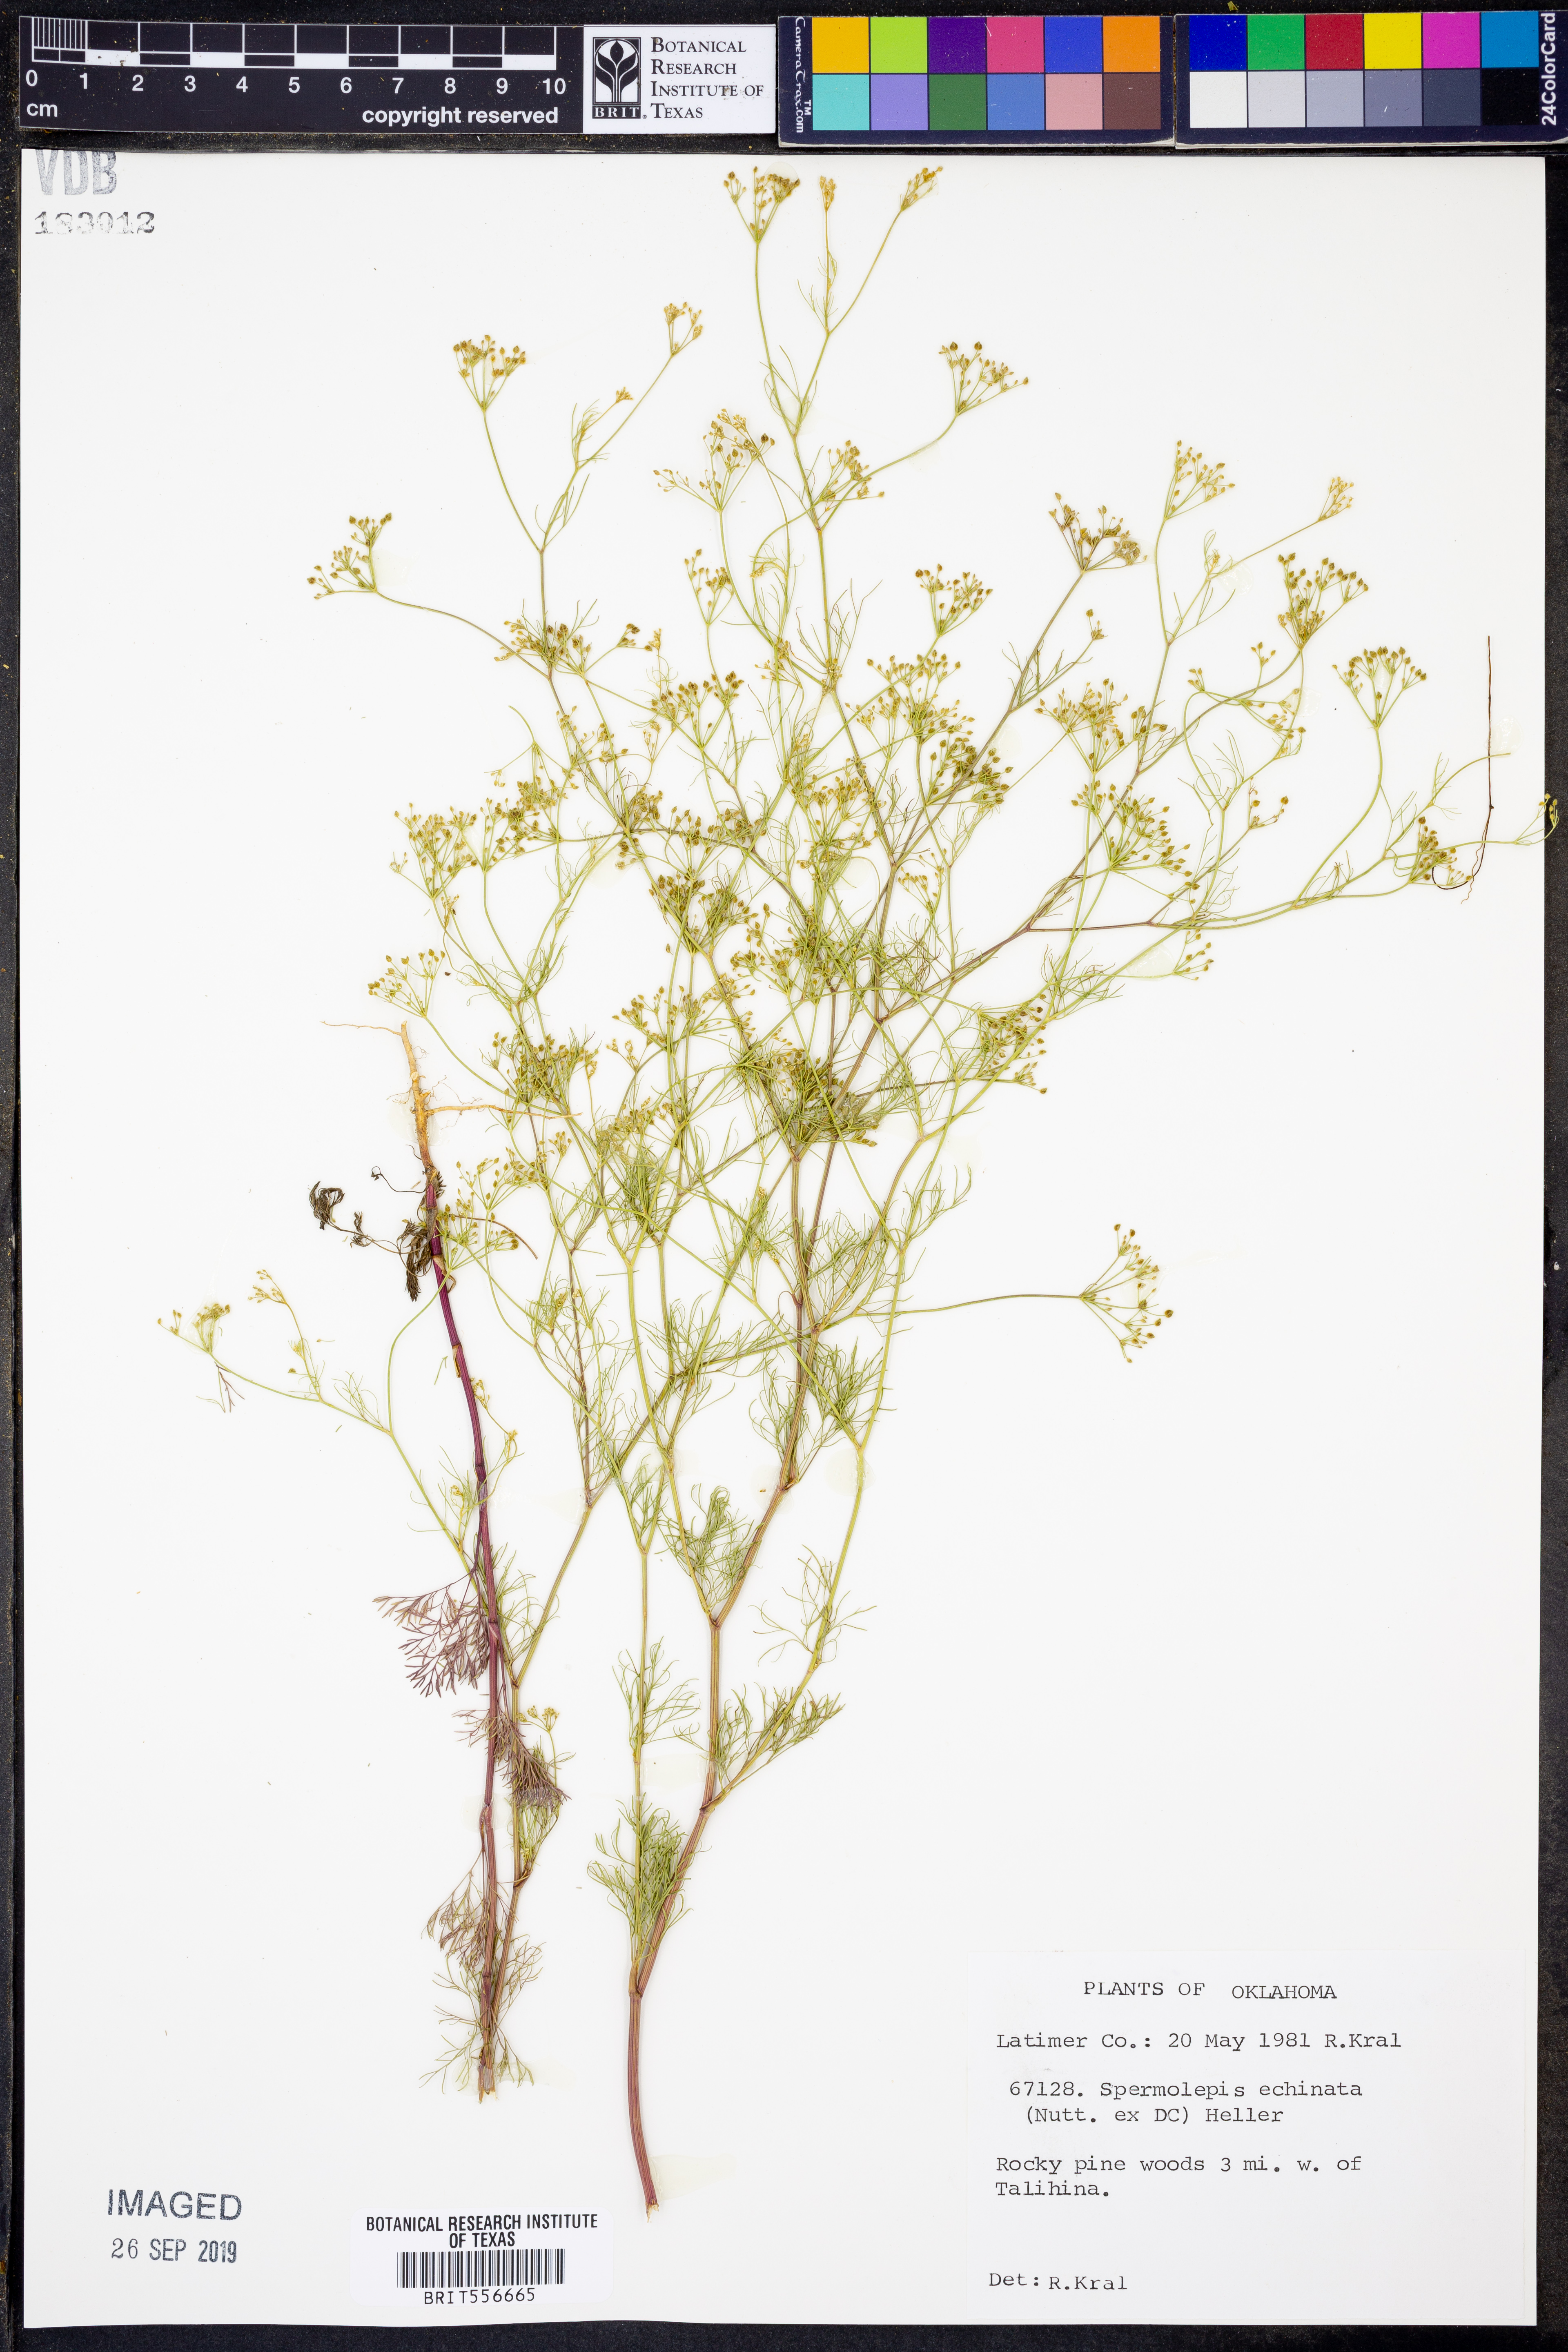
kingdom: Plantae
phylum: Tracheophyta
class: Magnoliopsida
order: Apiales
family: Apiaceae
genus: Spermolepis
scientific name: Spermolepis echinata
